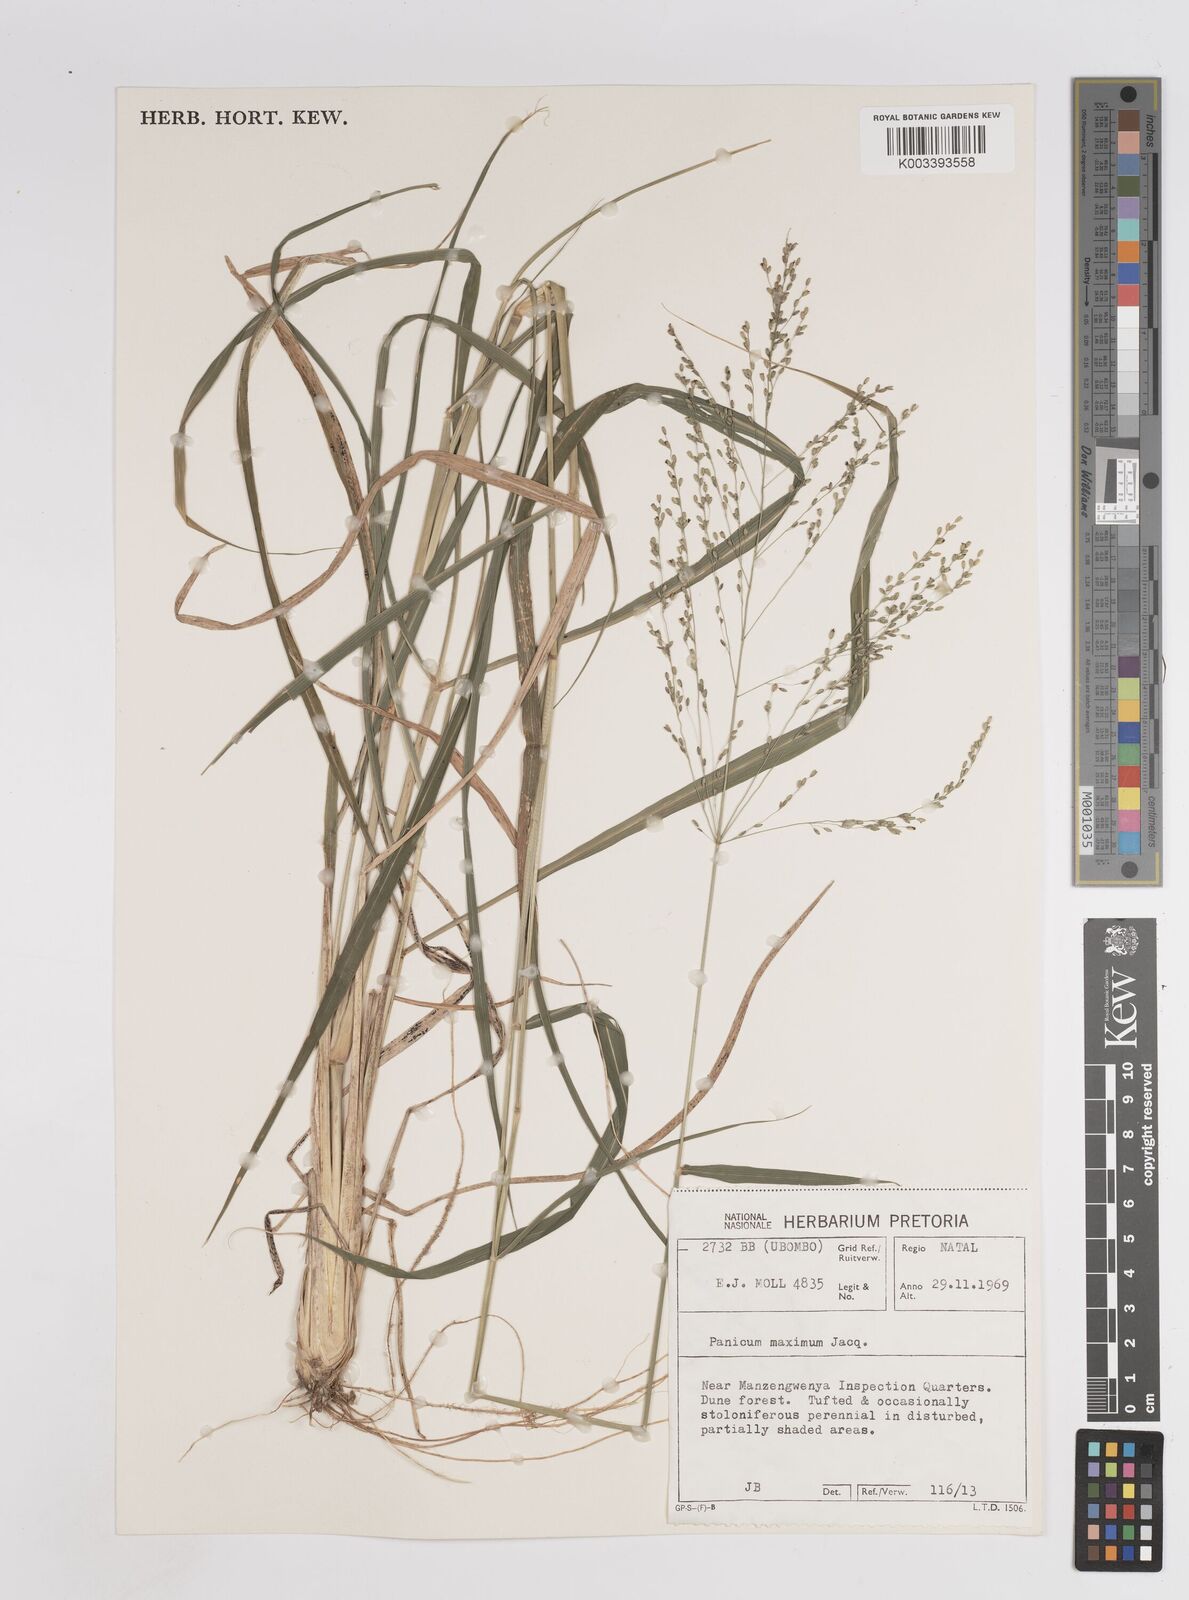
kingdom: Plantae
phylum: Tracheophyta
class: Liliopsida
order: Poales
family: Poaceae
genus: Megathyrsus
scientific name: Megathyrsus maximus
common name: Guineagrass
